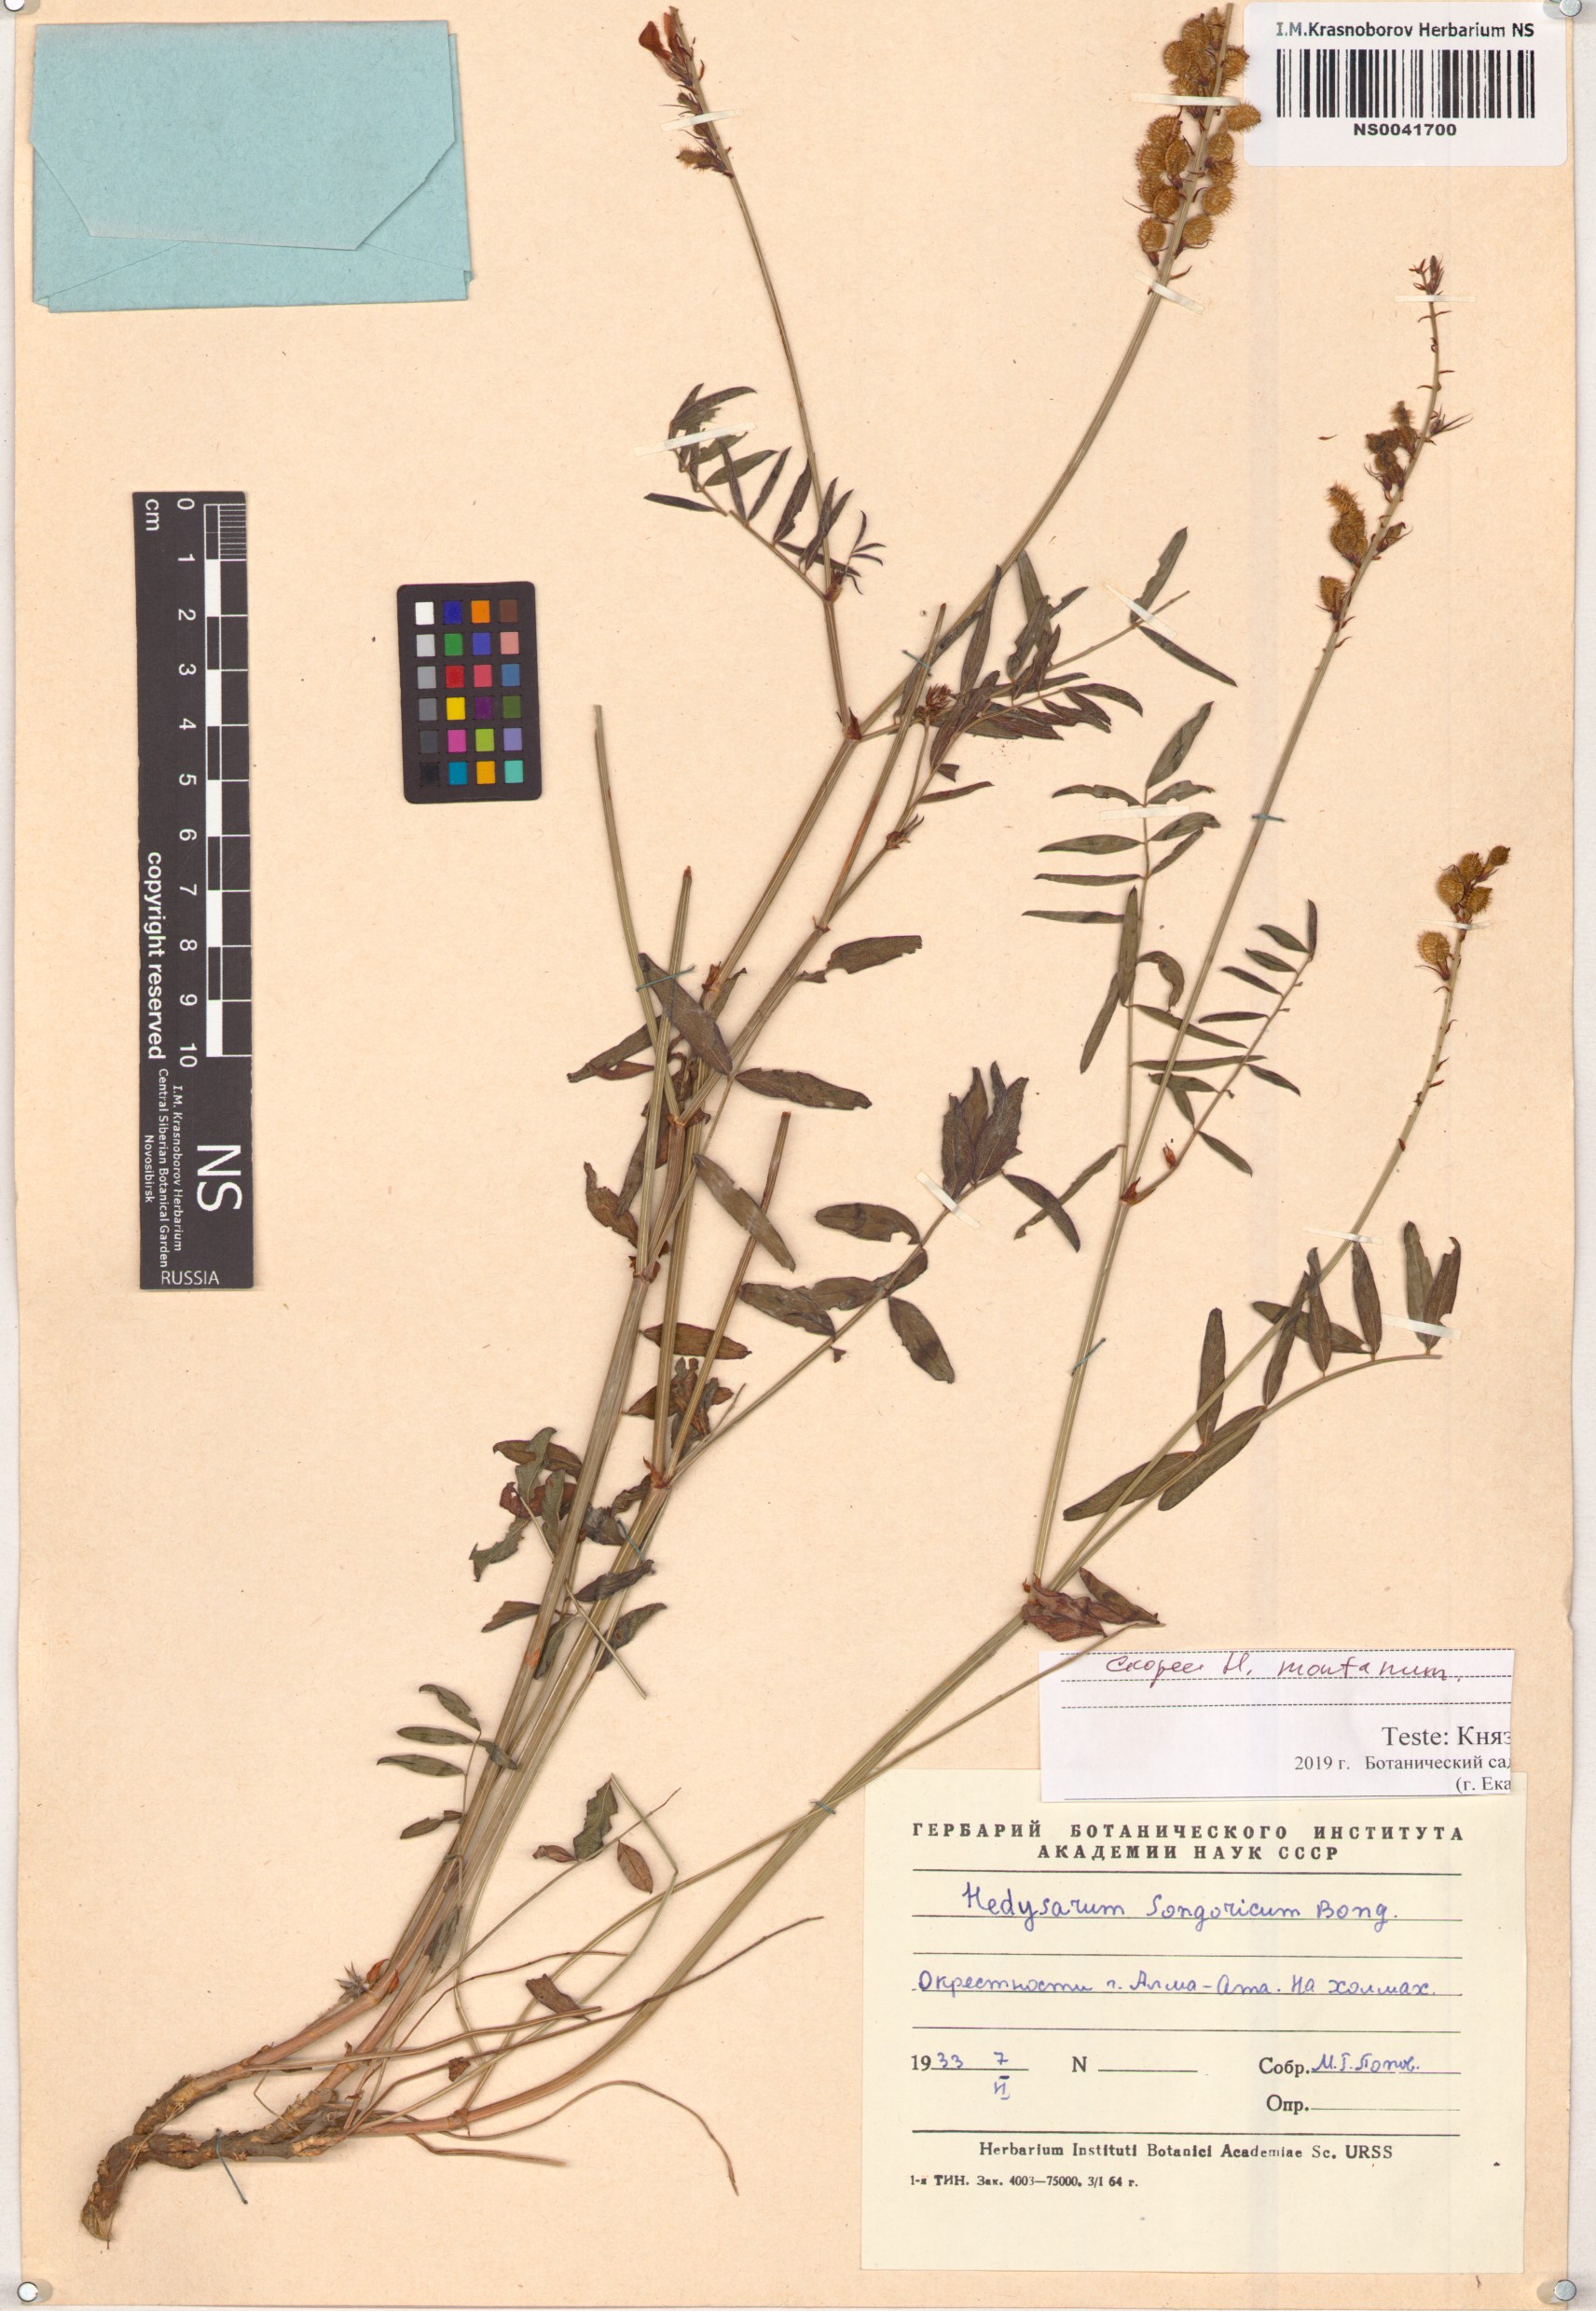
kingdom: Plantae
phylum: Tracheophyta
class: Magnoliopsida
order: Fabales
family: Fabaceae
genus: Hedysarum
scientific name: Hedysarum issykkulense
